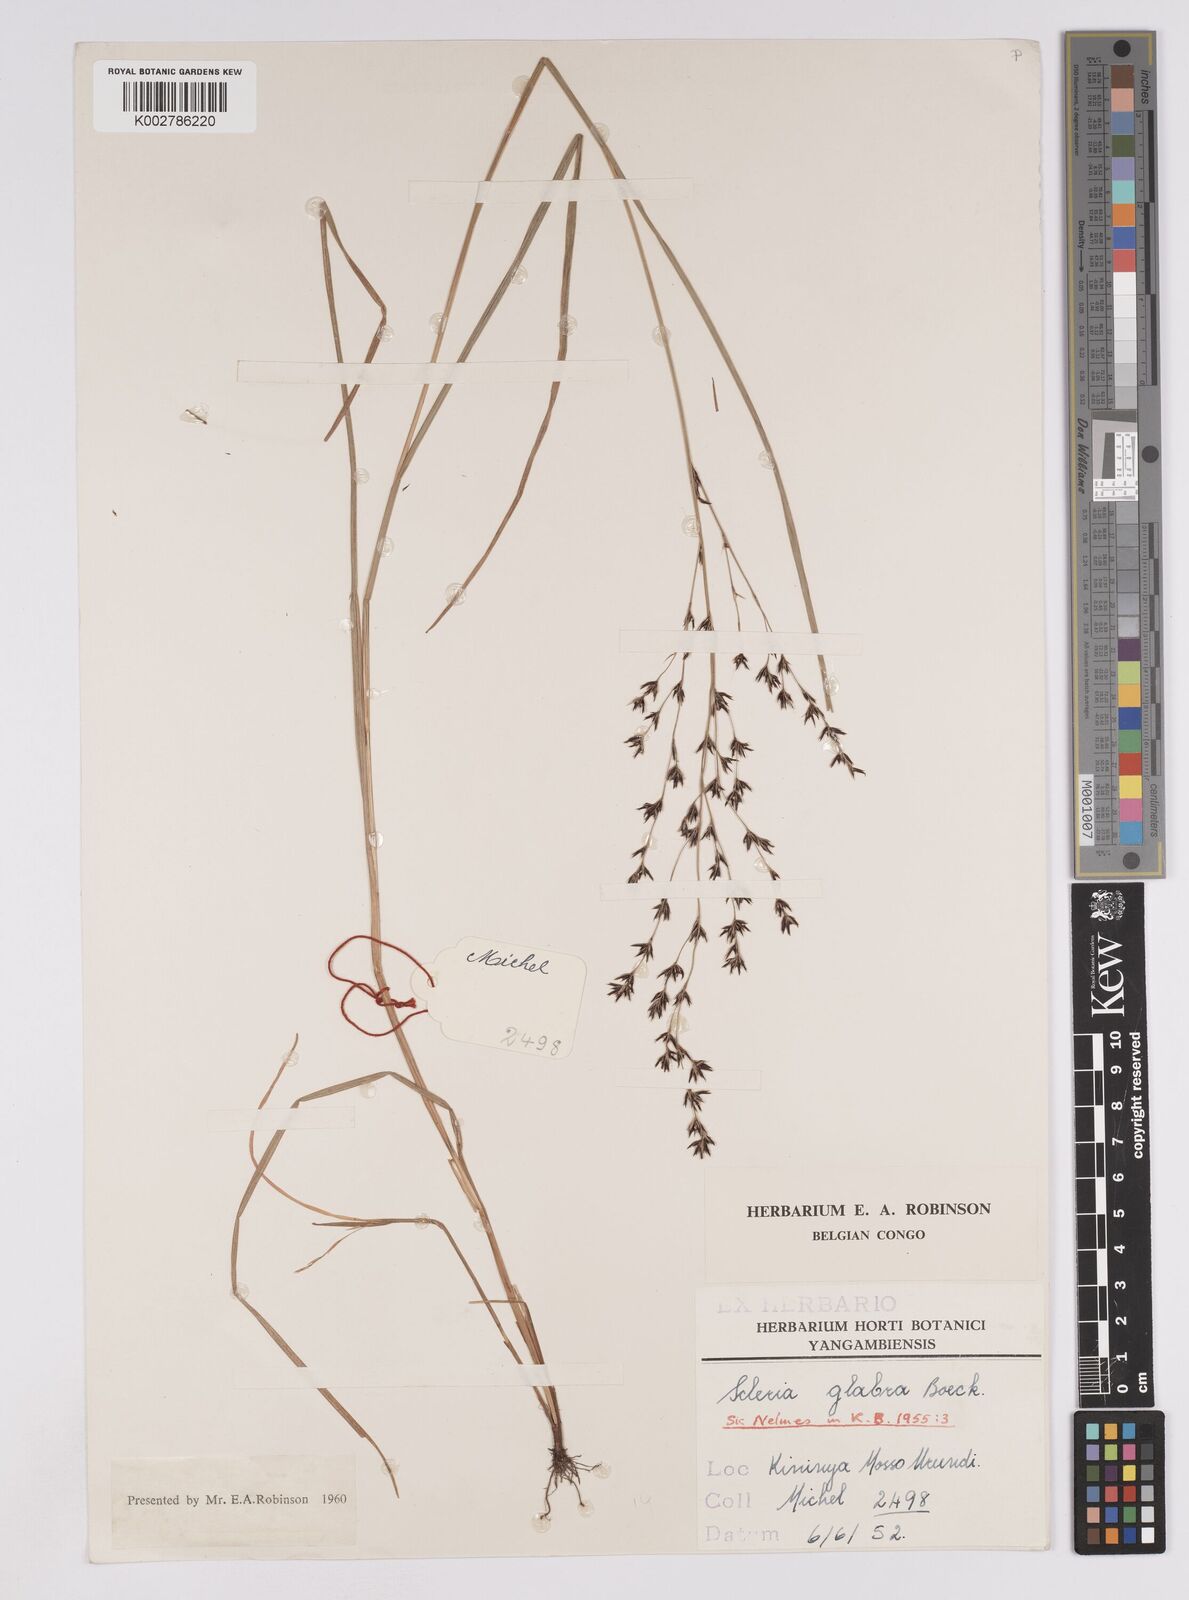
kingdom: Plantae
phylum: Tracheophyta
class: Liliopsida
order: Poales
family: Cyperaceae
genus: Scleria
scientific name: Scleria glabra
